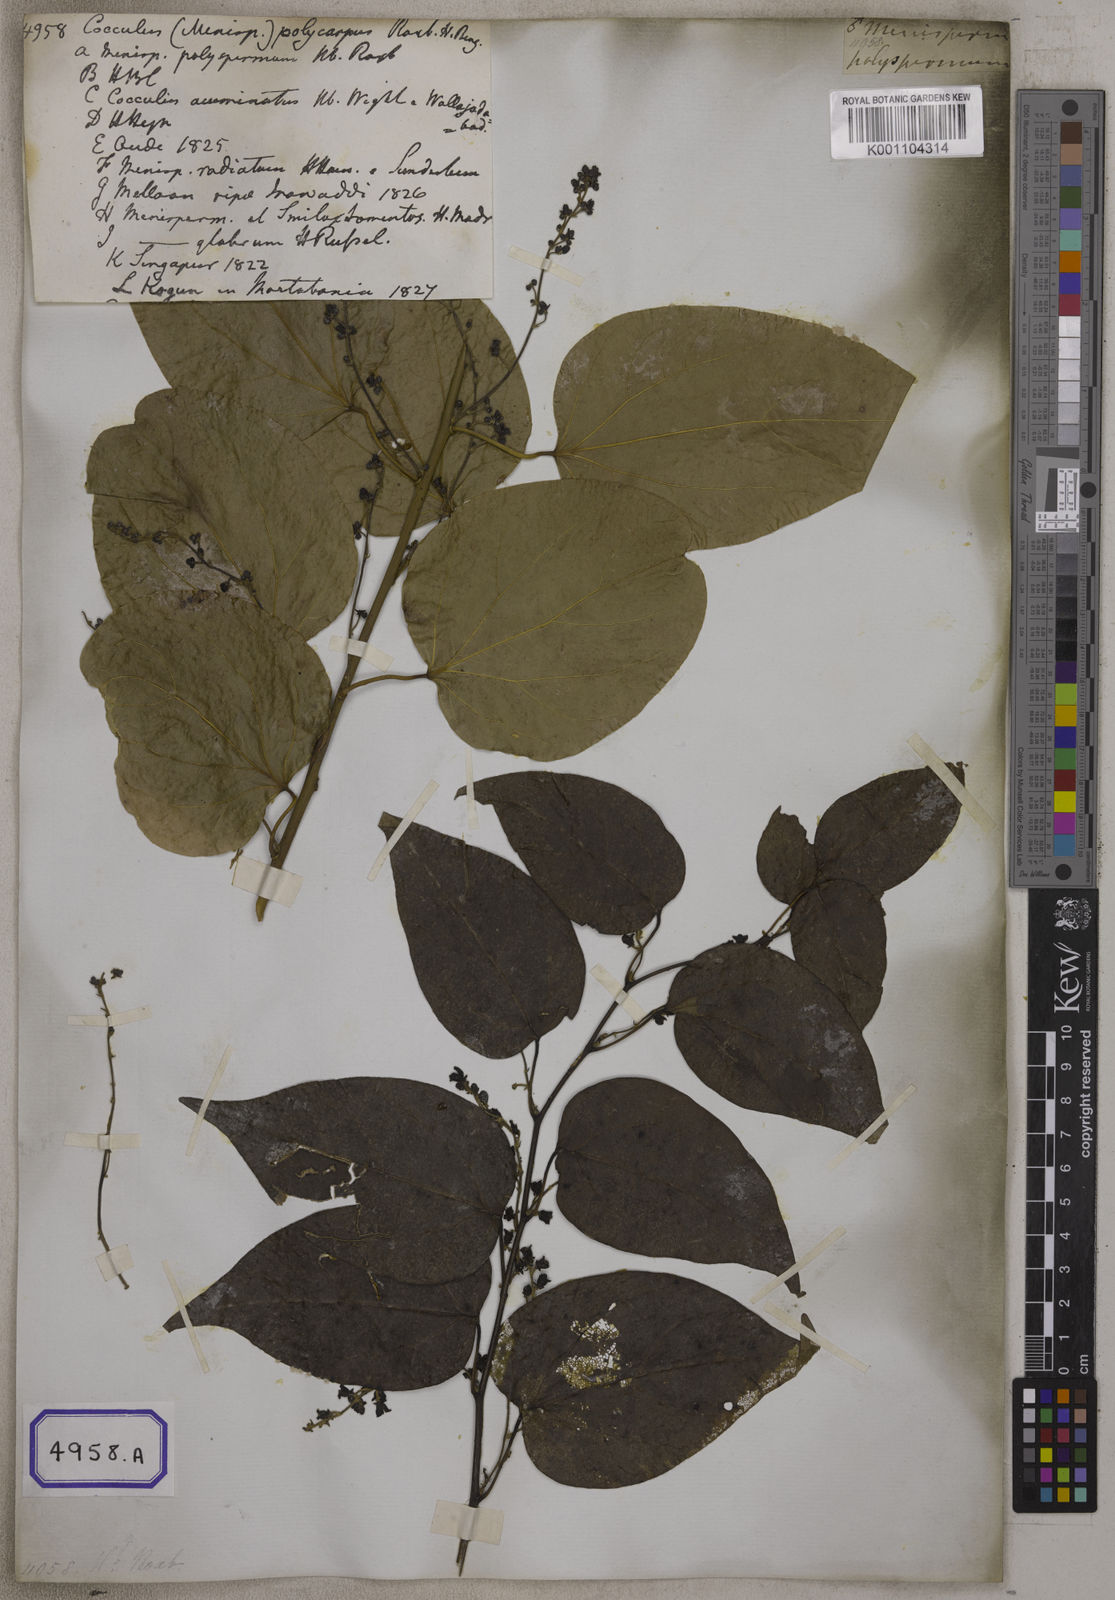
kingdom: Plantae
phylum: Tracheophyta
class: Magnoliopsida
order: Ranunculales
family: Menispermaceae
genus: Cocculus
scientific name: Cocculus
